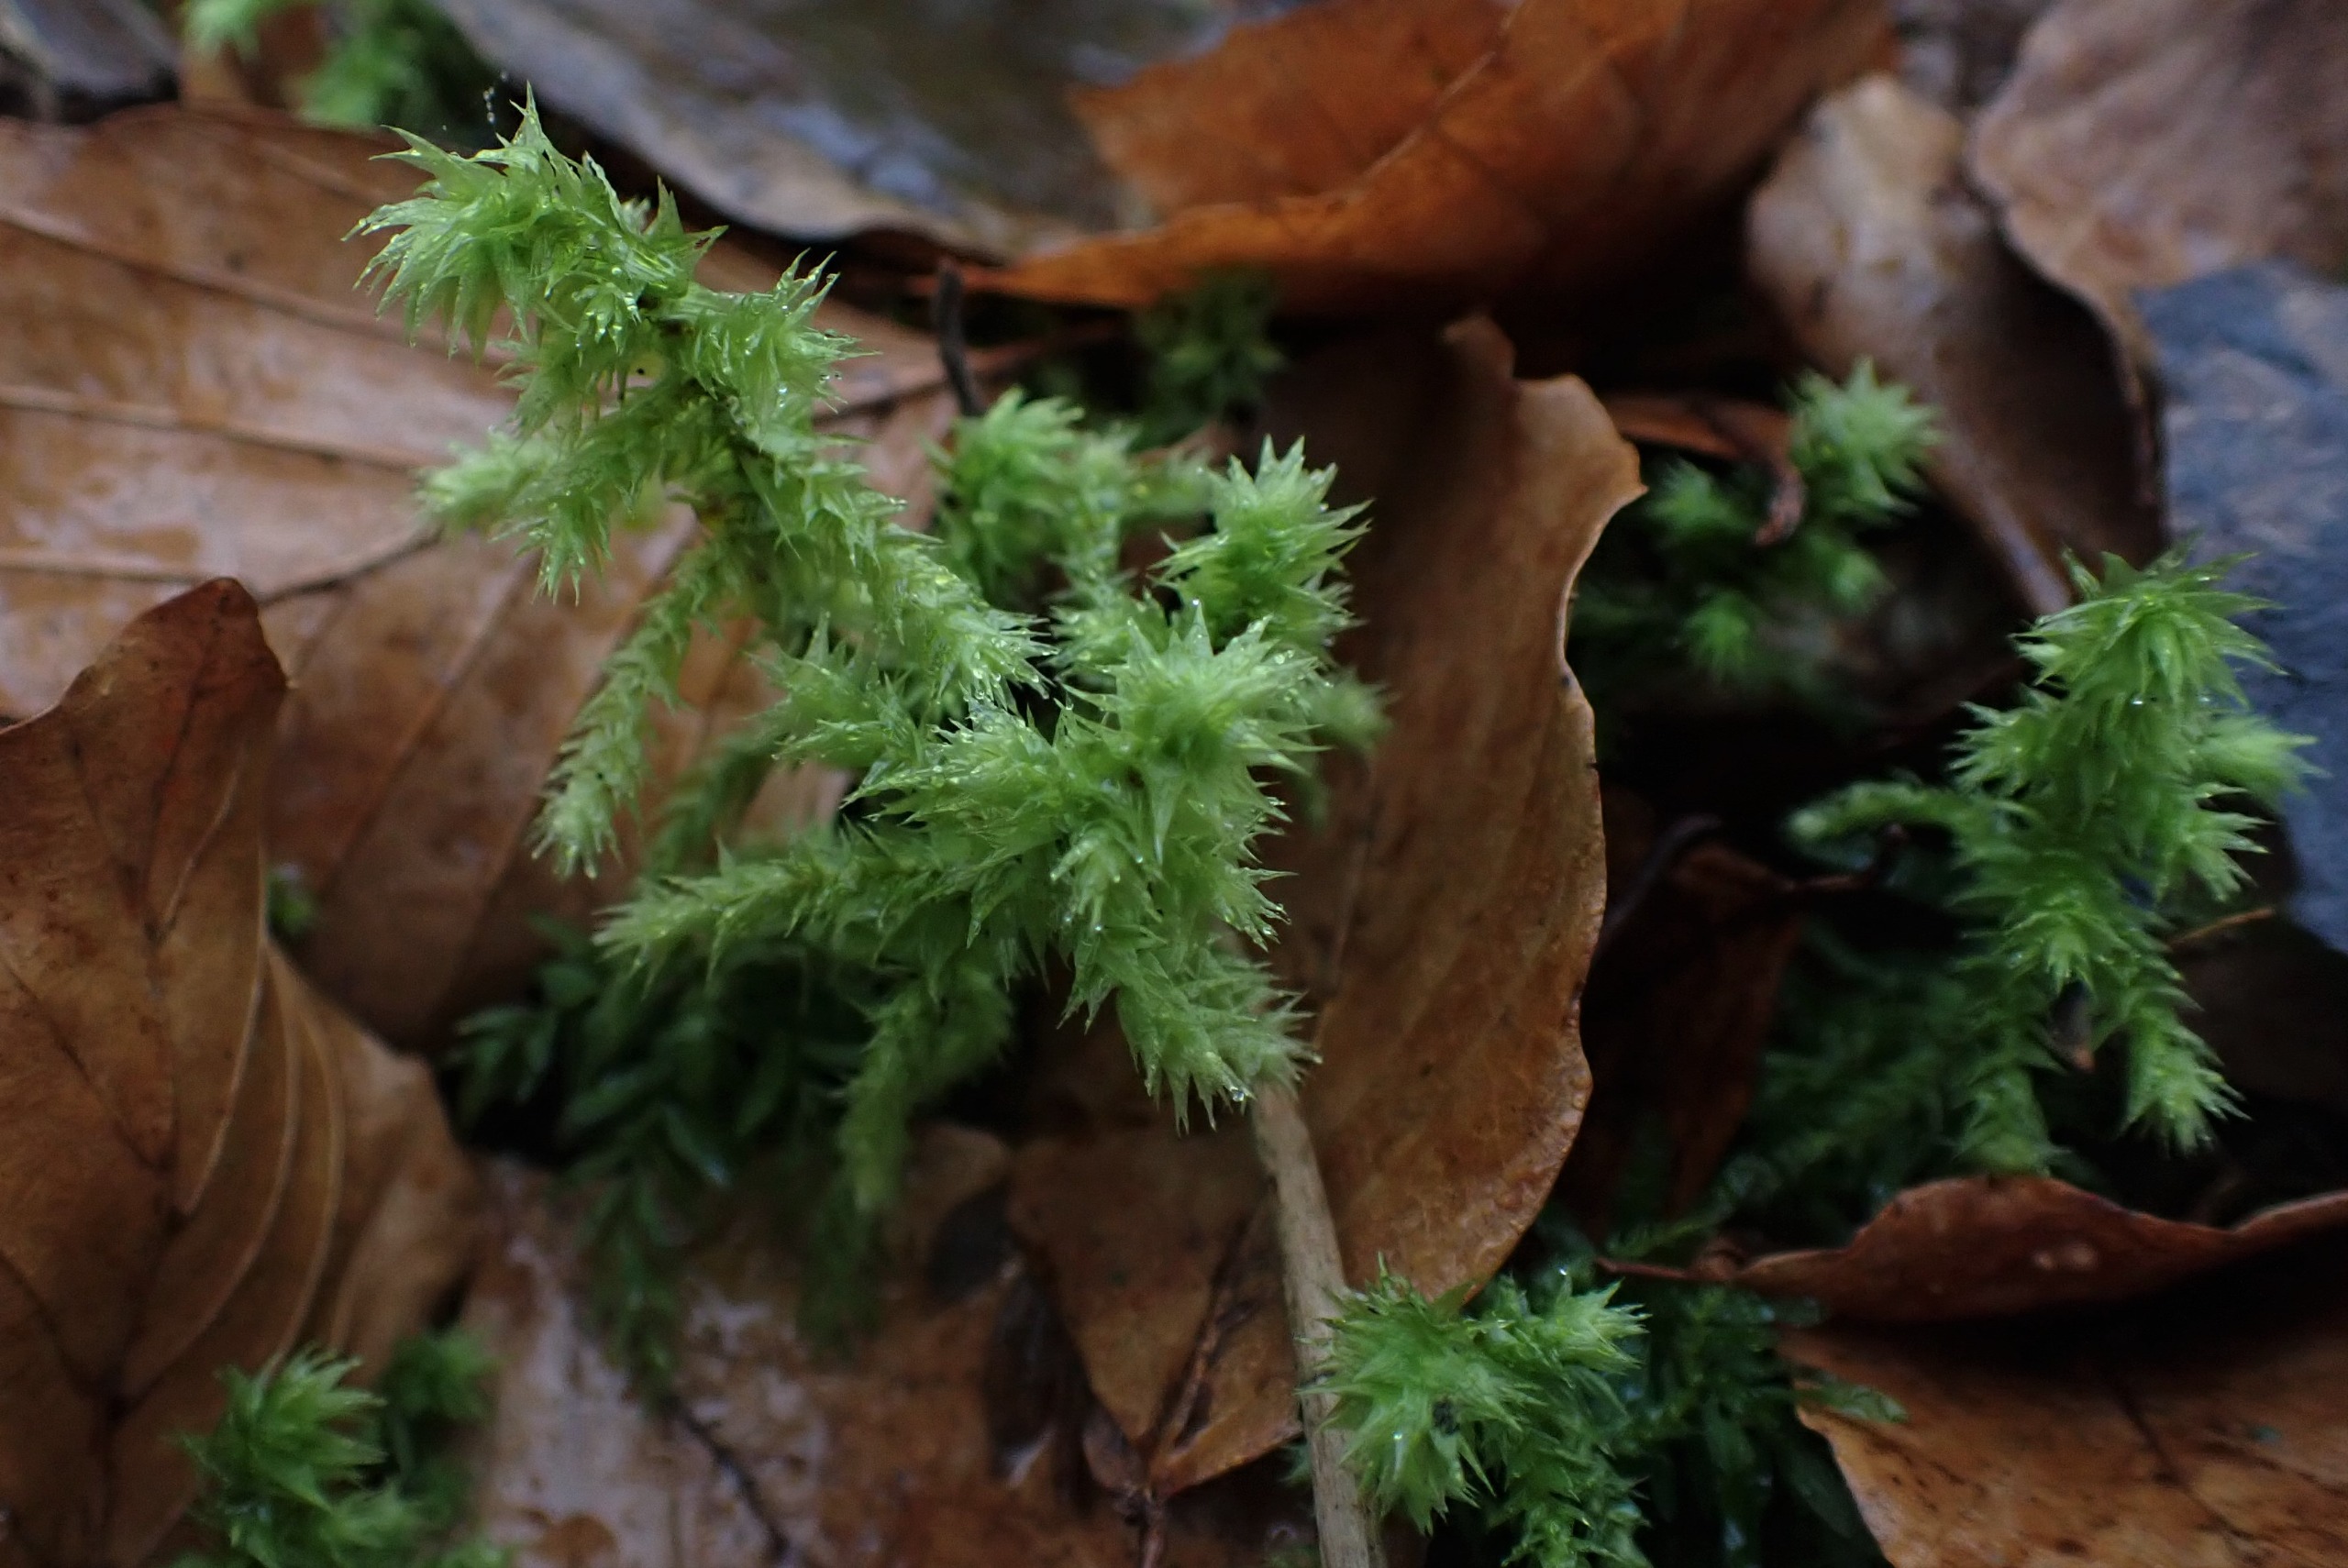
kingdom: Plantae
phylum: Bryophyta
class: Bryopsida
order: Hypnales
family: Hylocomiaceae
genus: Hylocomiadelphus
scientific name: Hylocomiadelphus triquetrus
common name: Stor kransemos
